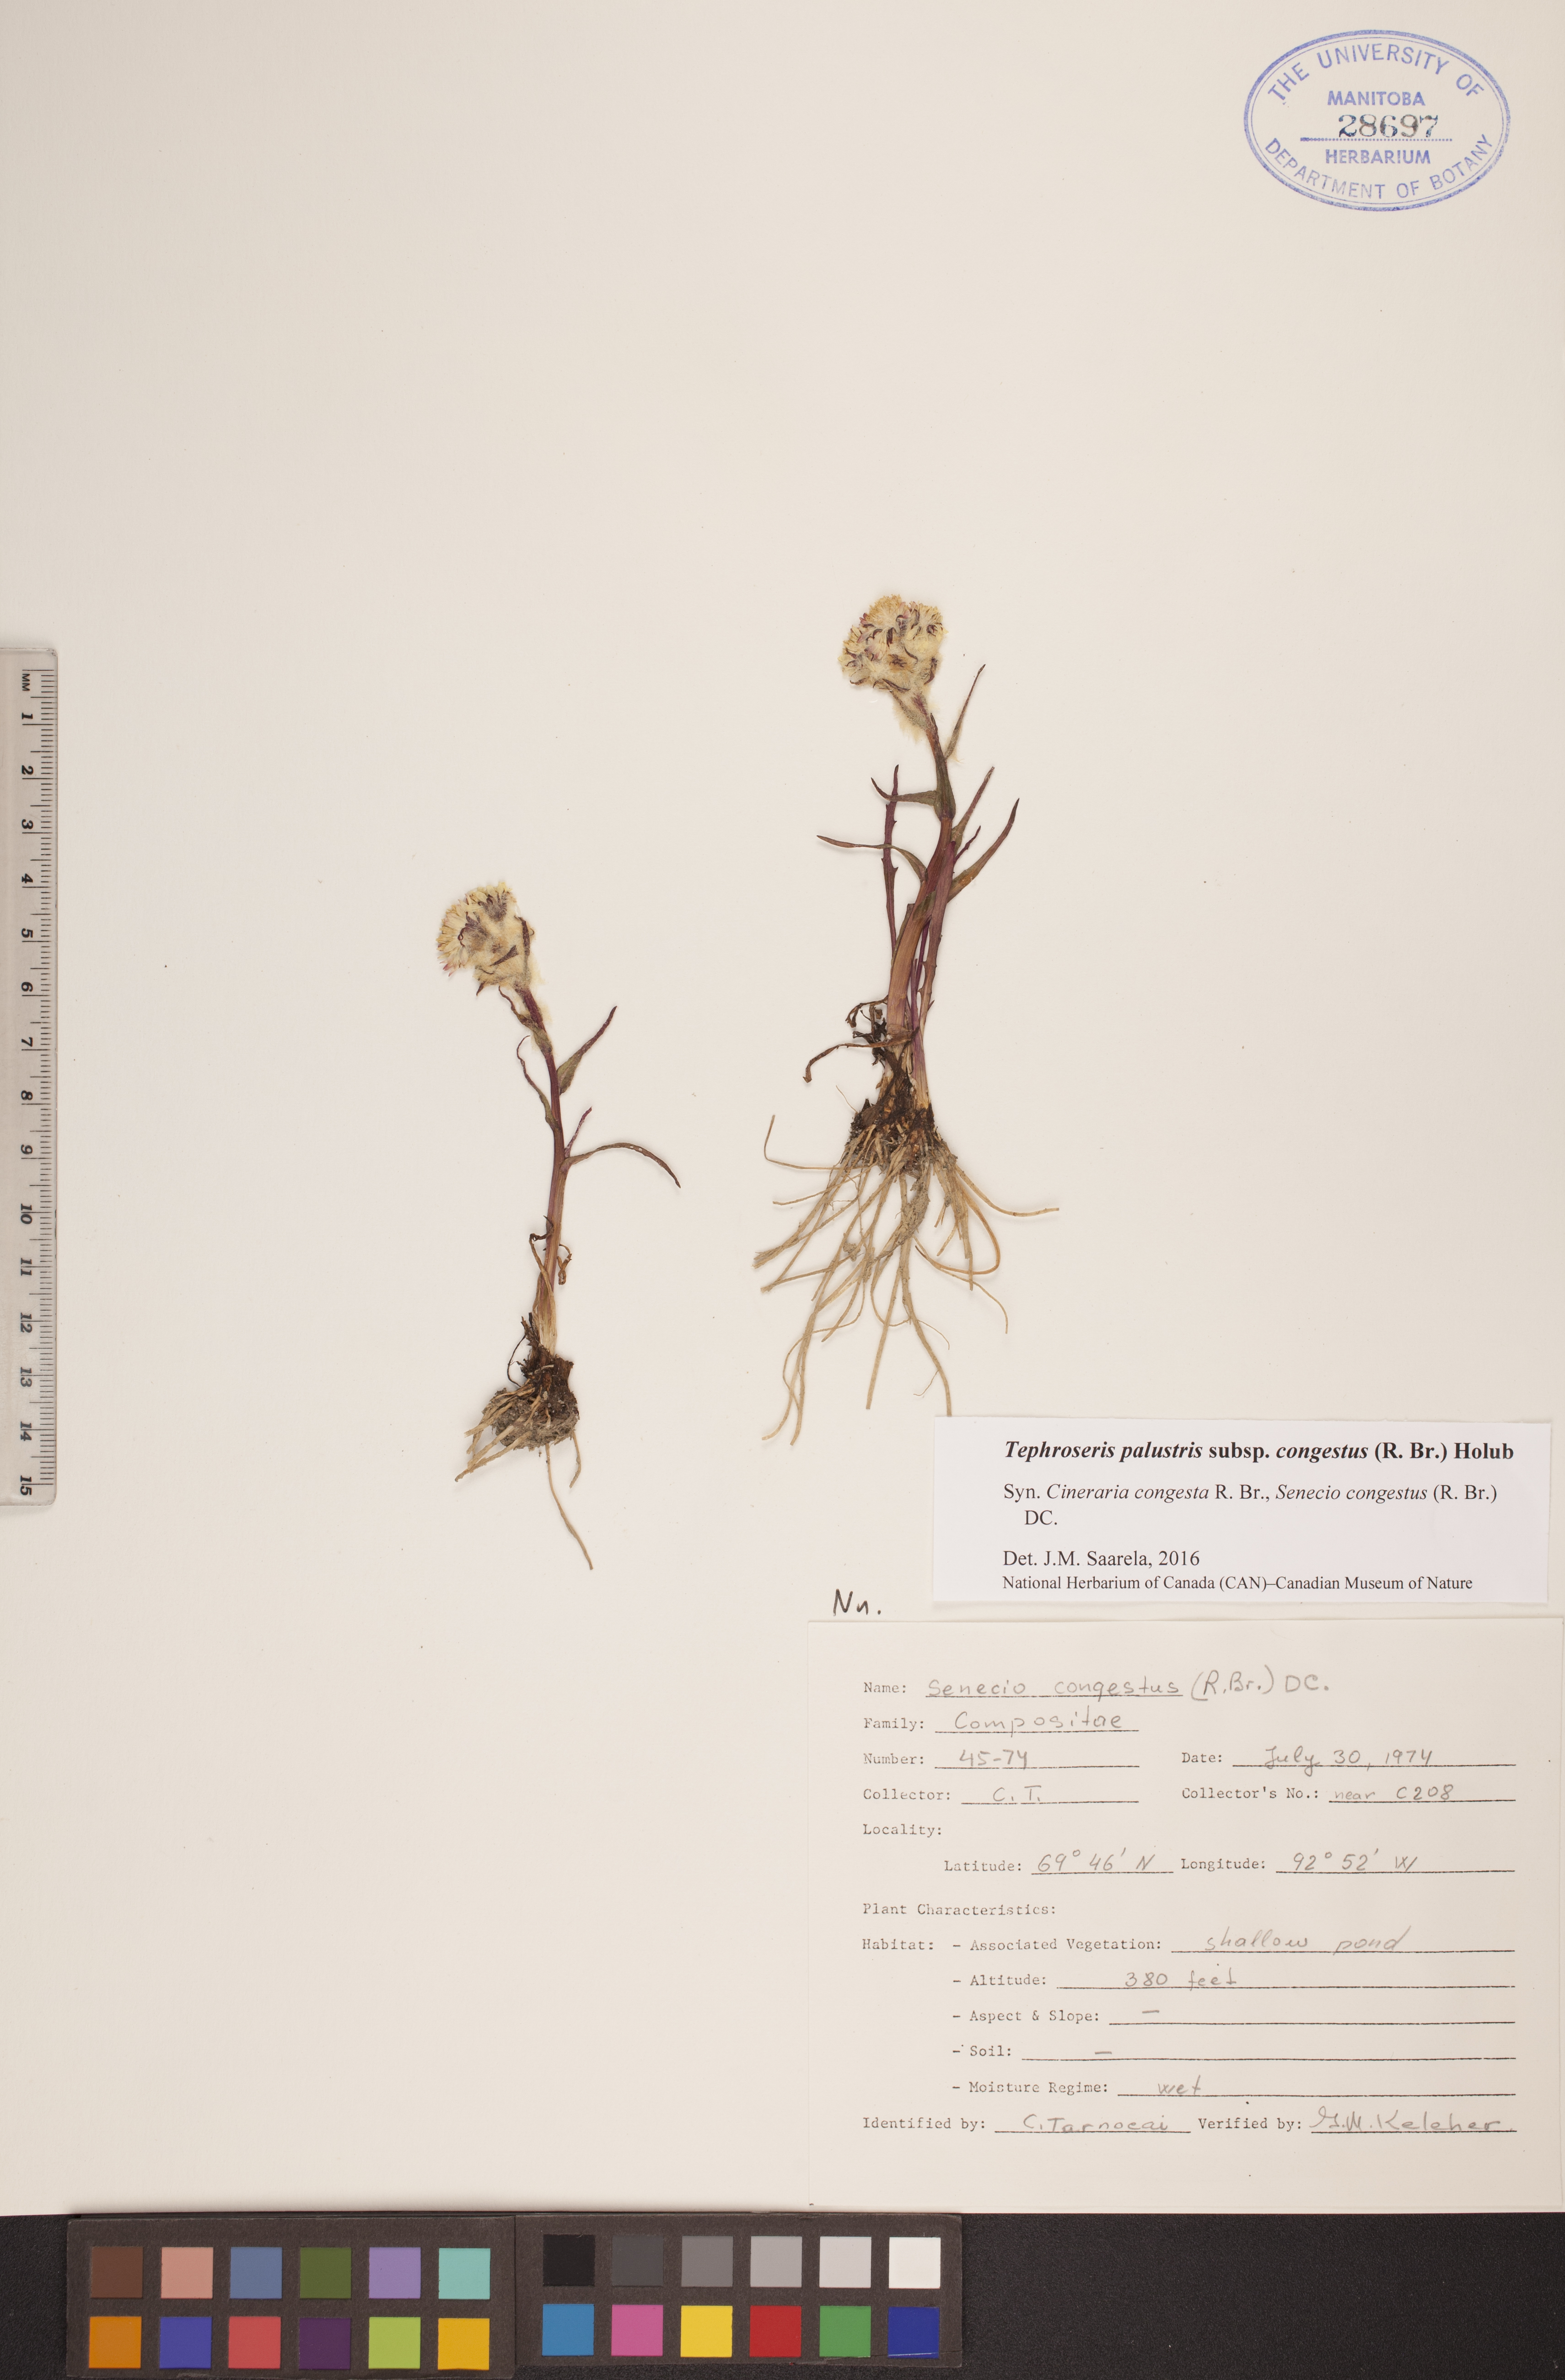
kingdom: Plantae
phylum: Tracheophyta
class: Magnoliopsida
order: Asterales
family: Asteraceae
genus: Tephroseris
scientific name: Tephroseris palustris
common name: Marsh fleawort
